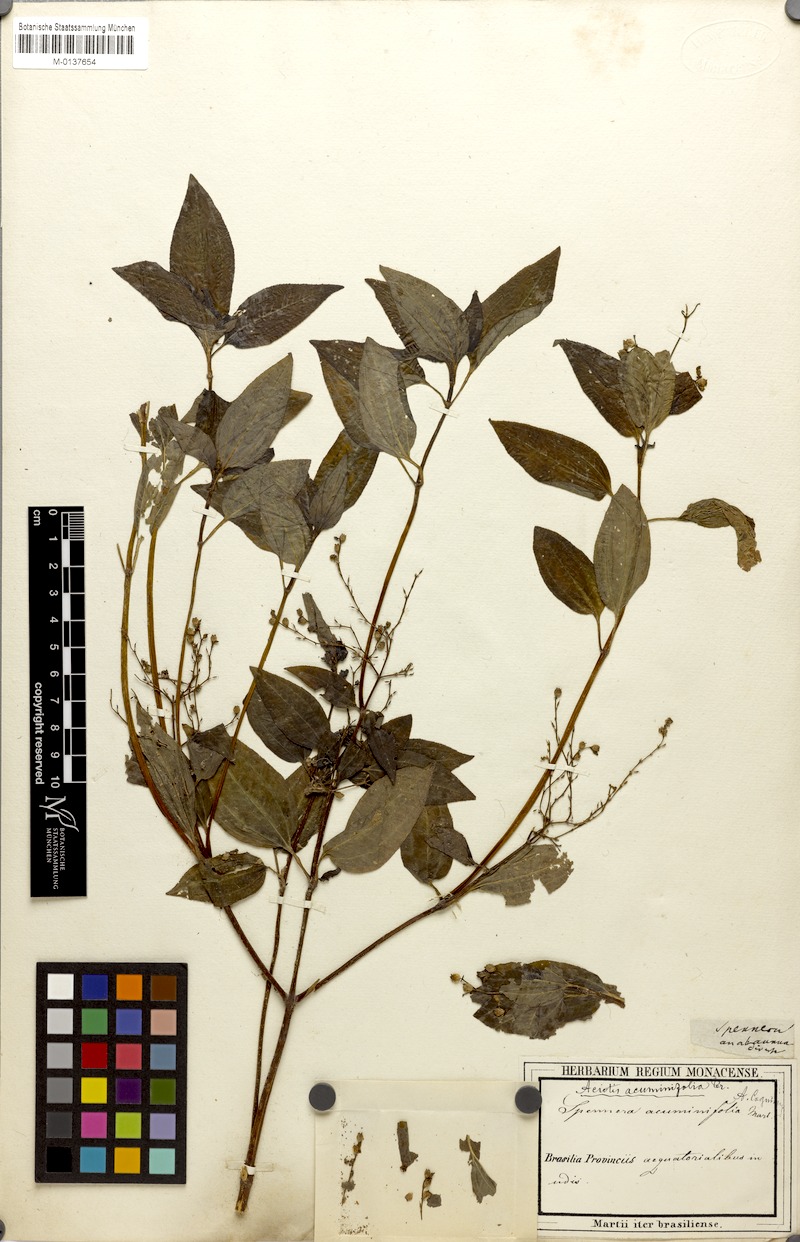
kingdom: Plantae
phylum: Tracheophyta
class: Magnoliopsida
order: Myrtales
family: Melastomataceae
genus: Aciotis
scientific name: Aciotis acuminifolia
